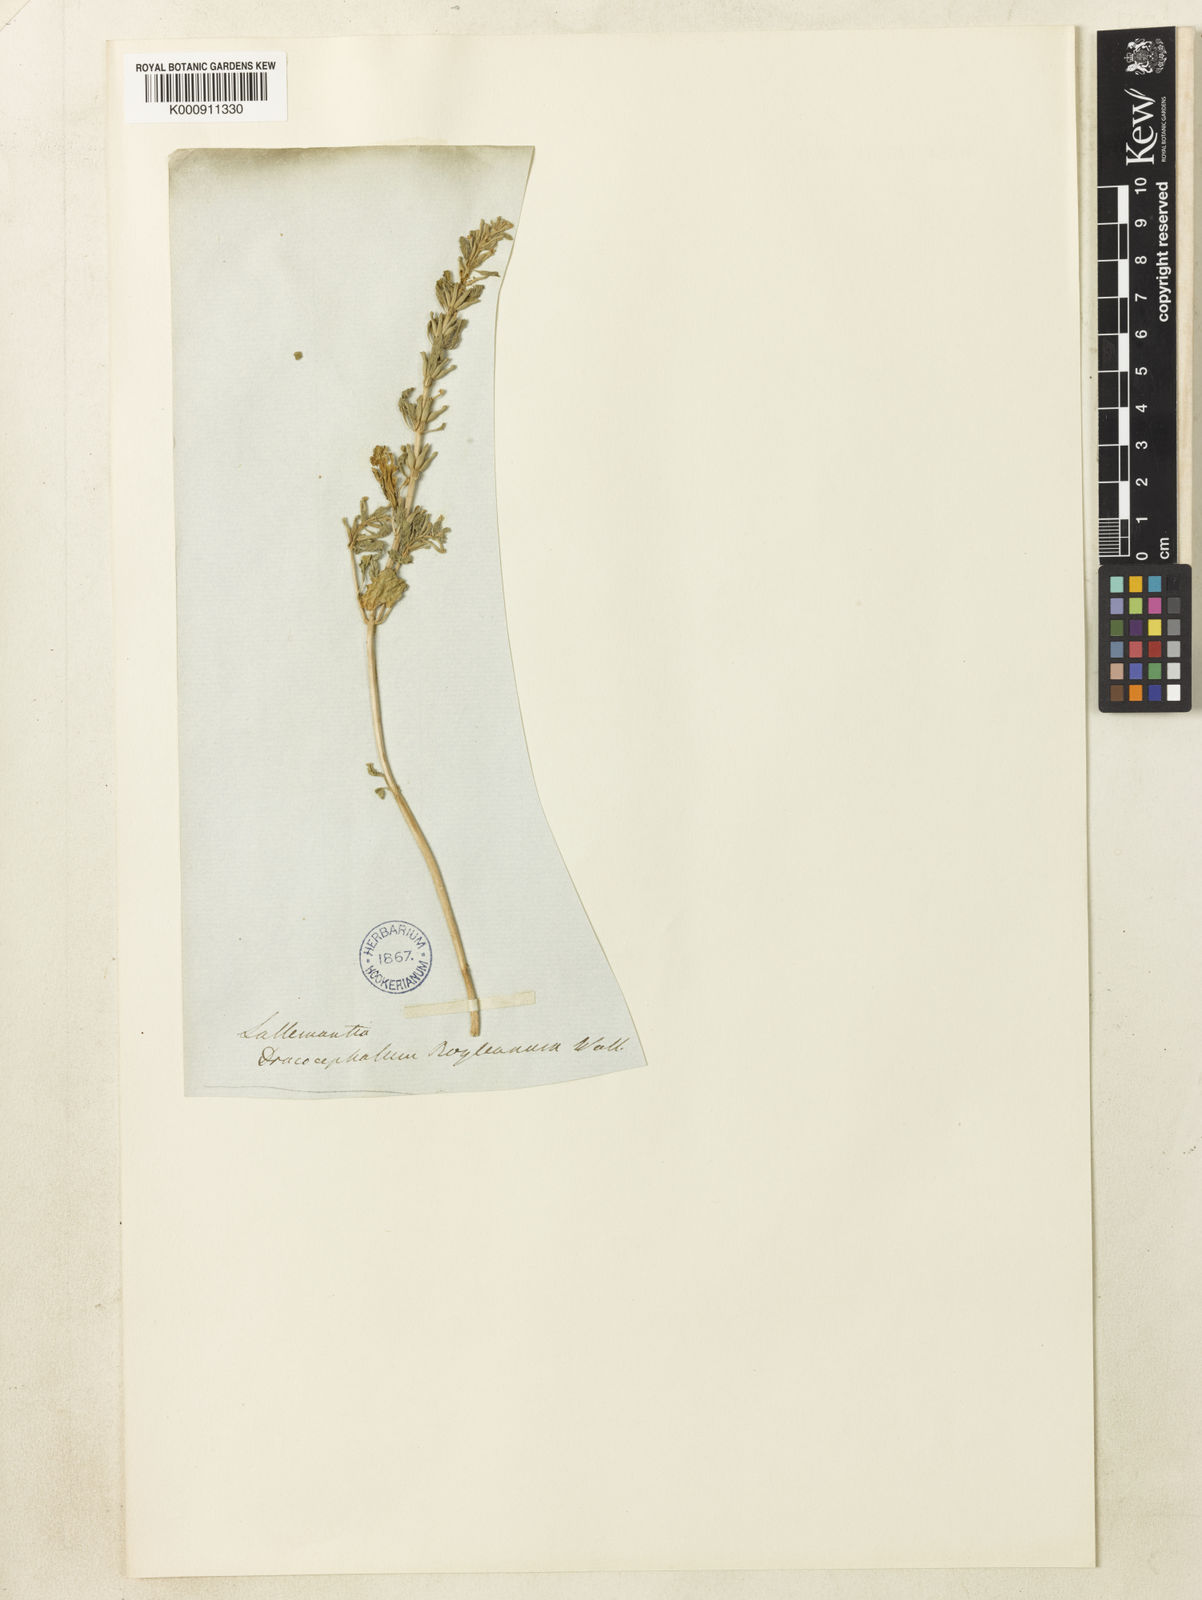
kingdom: Plantae
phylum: Tracheophyta
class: Magnoliopsida
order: Lamiales
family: Lamiaceae
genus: Lallemantia
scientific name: Lallemantia royleana
